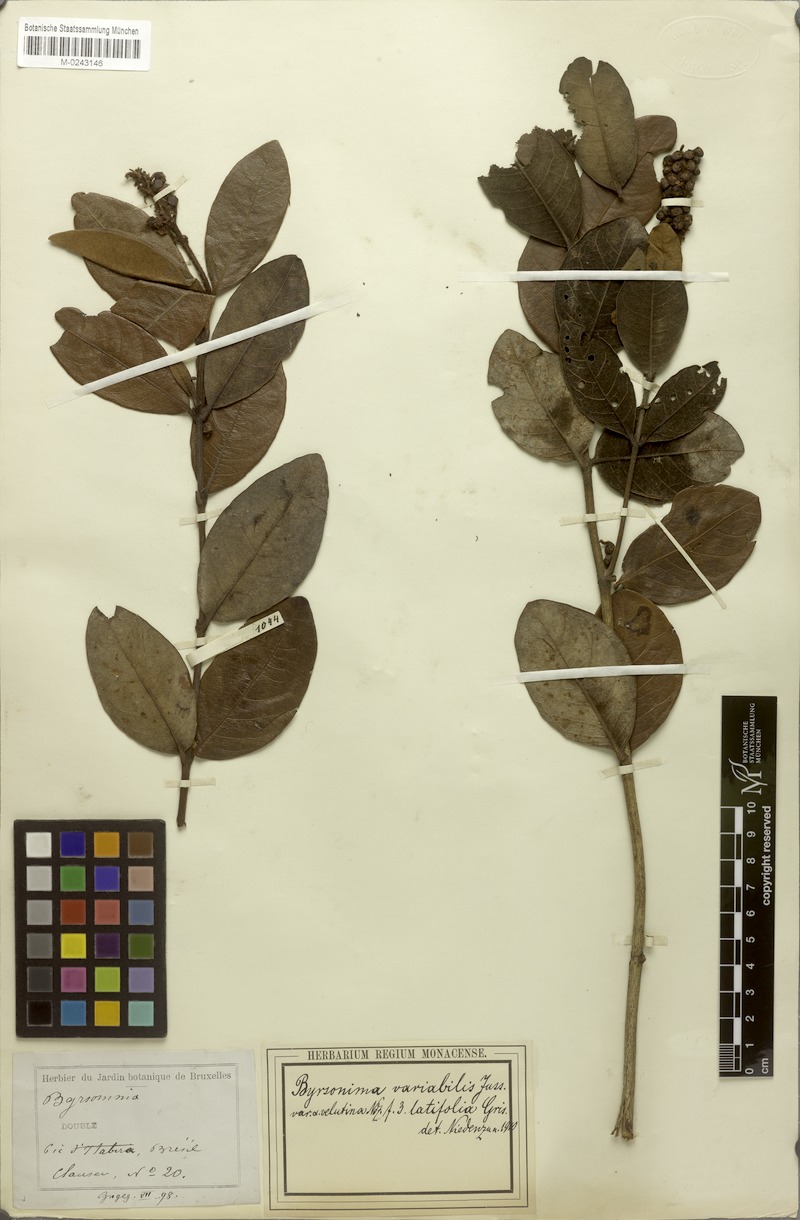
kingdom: Plantae
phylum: Tracheophyta
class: Magnoliopsida
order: Malpighiales
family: Malpighiaceae
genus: Byrsonima
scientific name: Byrsonima variabilis
